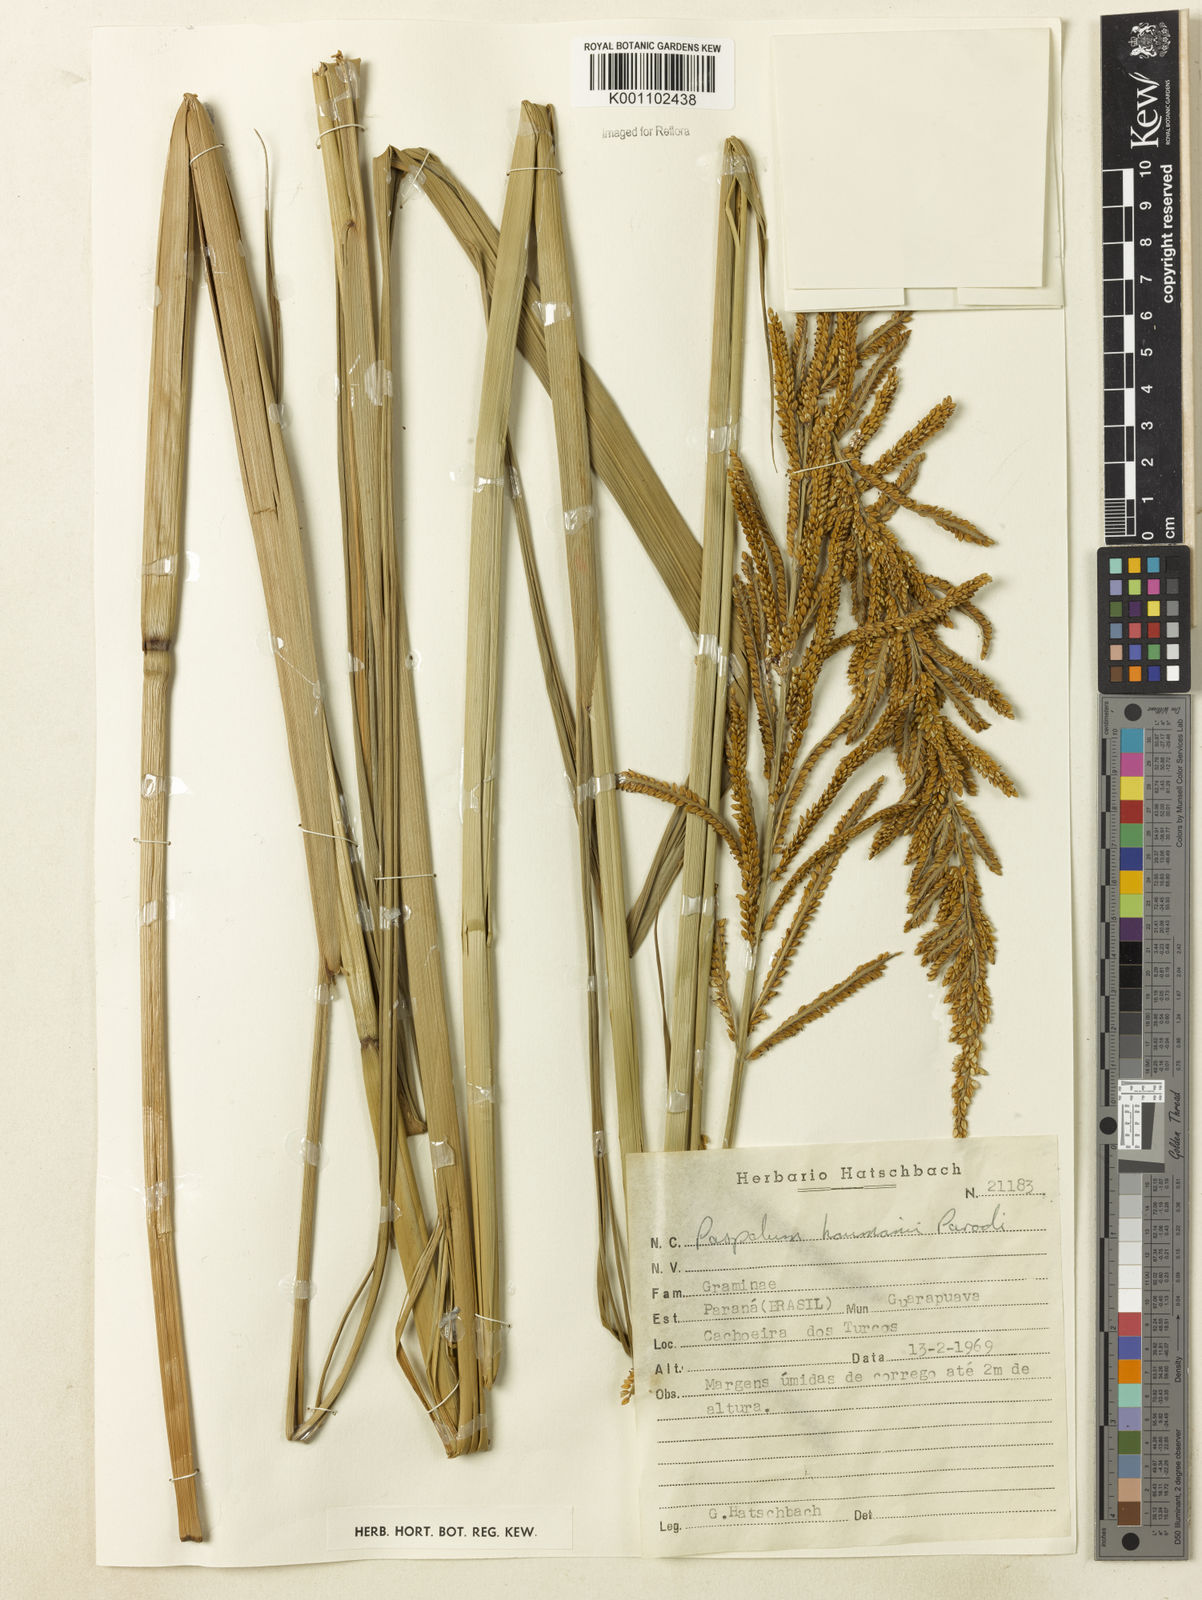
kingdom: Plantae
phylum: Tracheophyta
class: Liliopsida
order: Poales
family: Poaceae
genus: Paspalum
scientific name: Paspalum exaltatum
